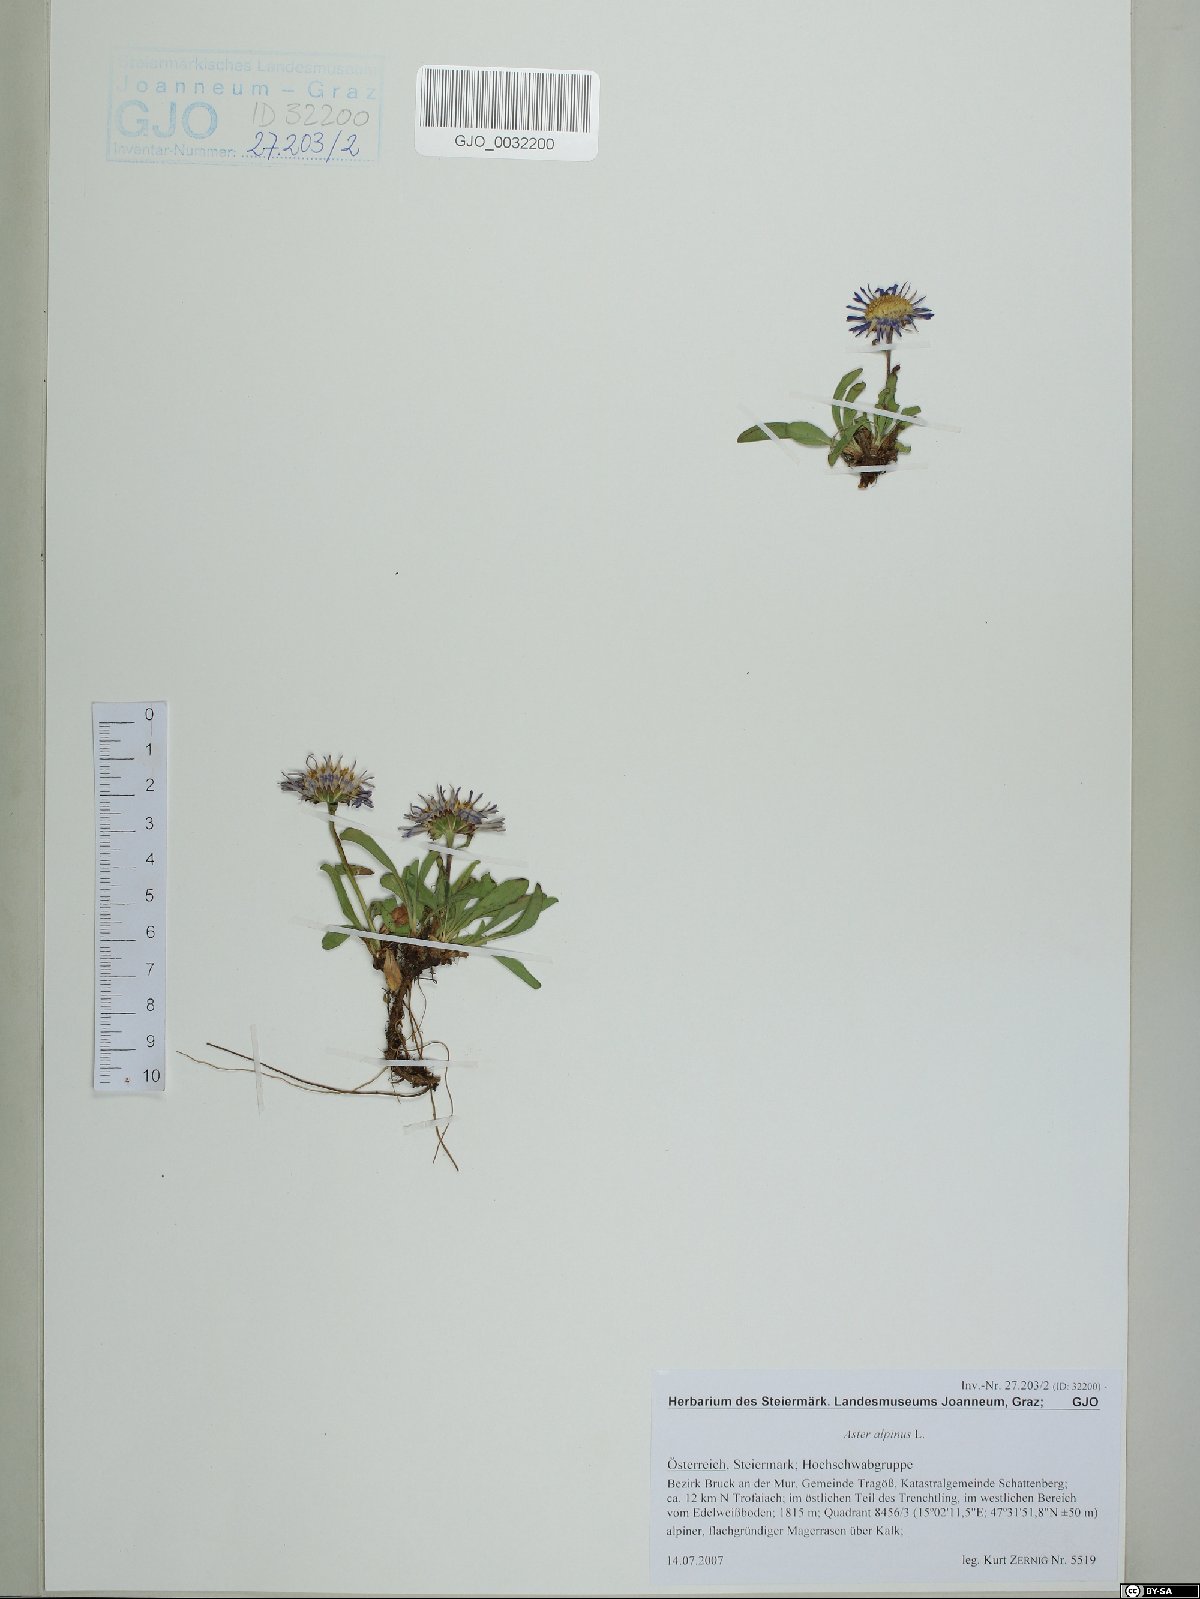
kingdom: Plantae
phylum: Tracheophyta
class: Magnoliopsida
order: Asterales
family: Asteraceae
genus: Aster
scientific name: Aster alpinus
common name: Alpine aster
